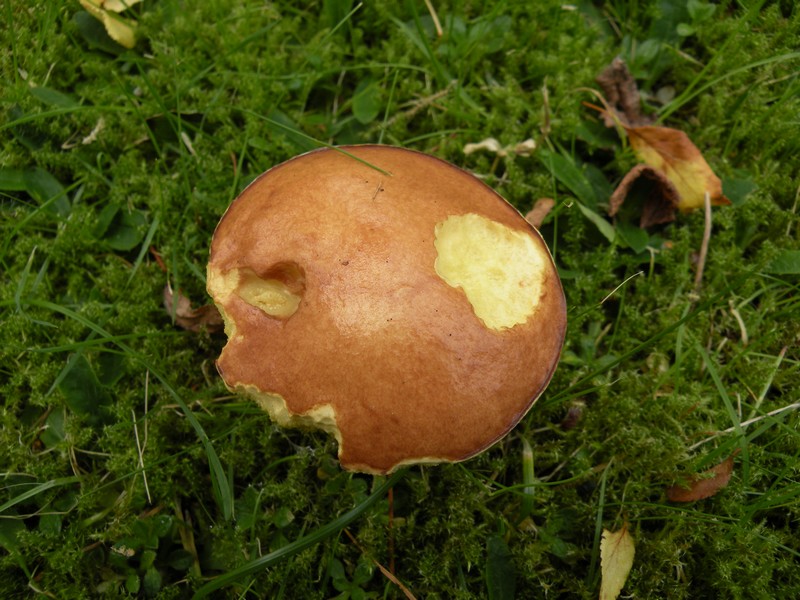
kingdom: Fungi
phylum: Basidiomycota
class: Agaricomycetes
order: Boletales
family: Suillaceae
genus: Suillus
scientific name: Suillus granulatus
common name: kornet slimrørhat
